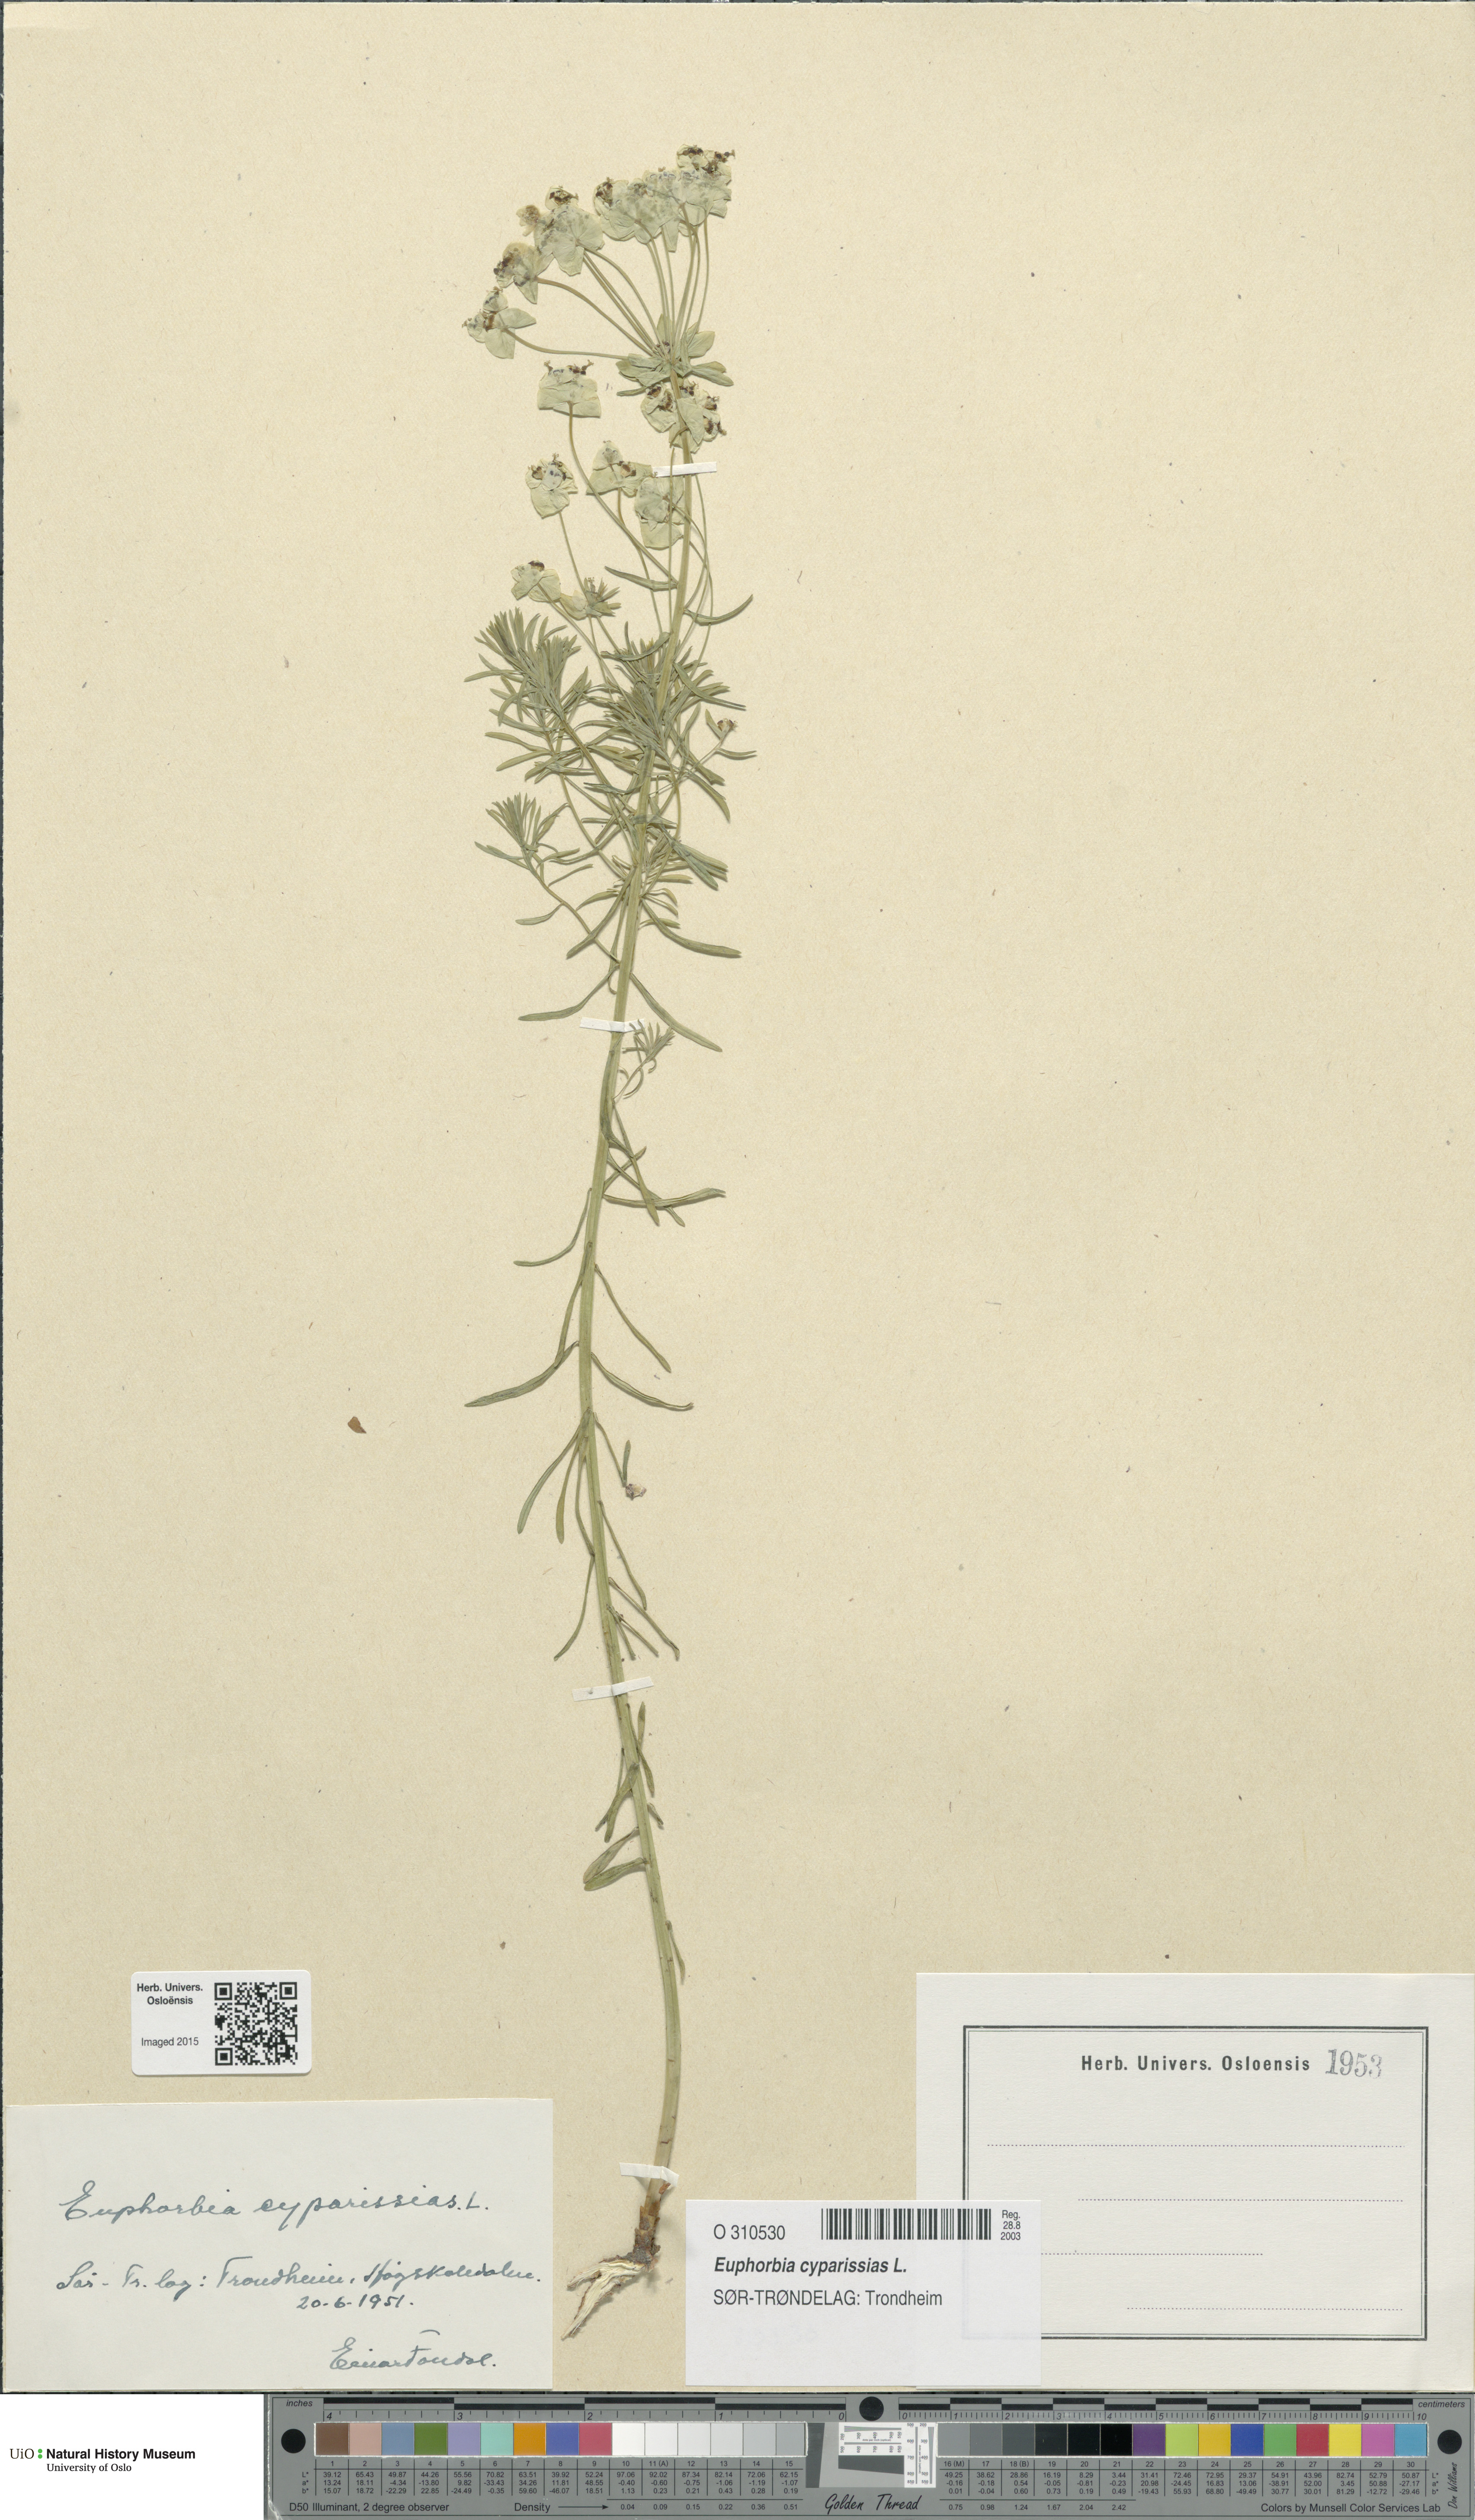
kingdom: Plantae
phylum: Tracheophyta
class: Magnoliopsida
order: Malpighiales
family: Euphorbiaceae
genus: Euphorbia
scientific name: Euphorbia cyparissias
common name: Cypress spurge
